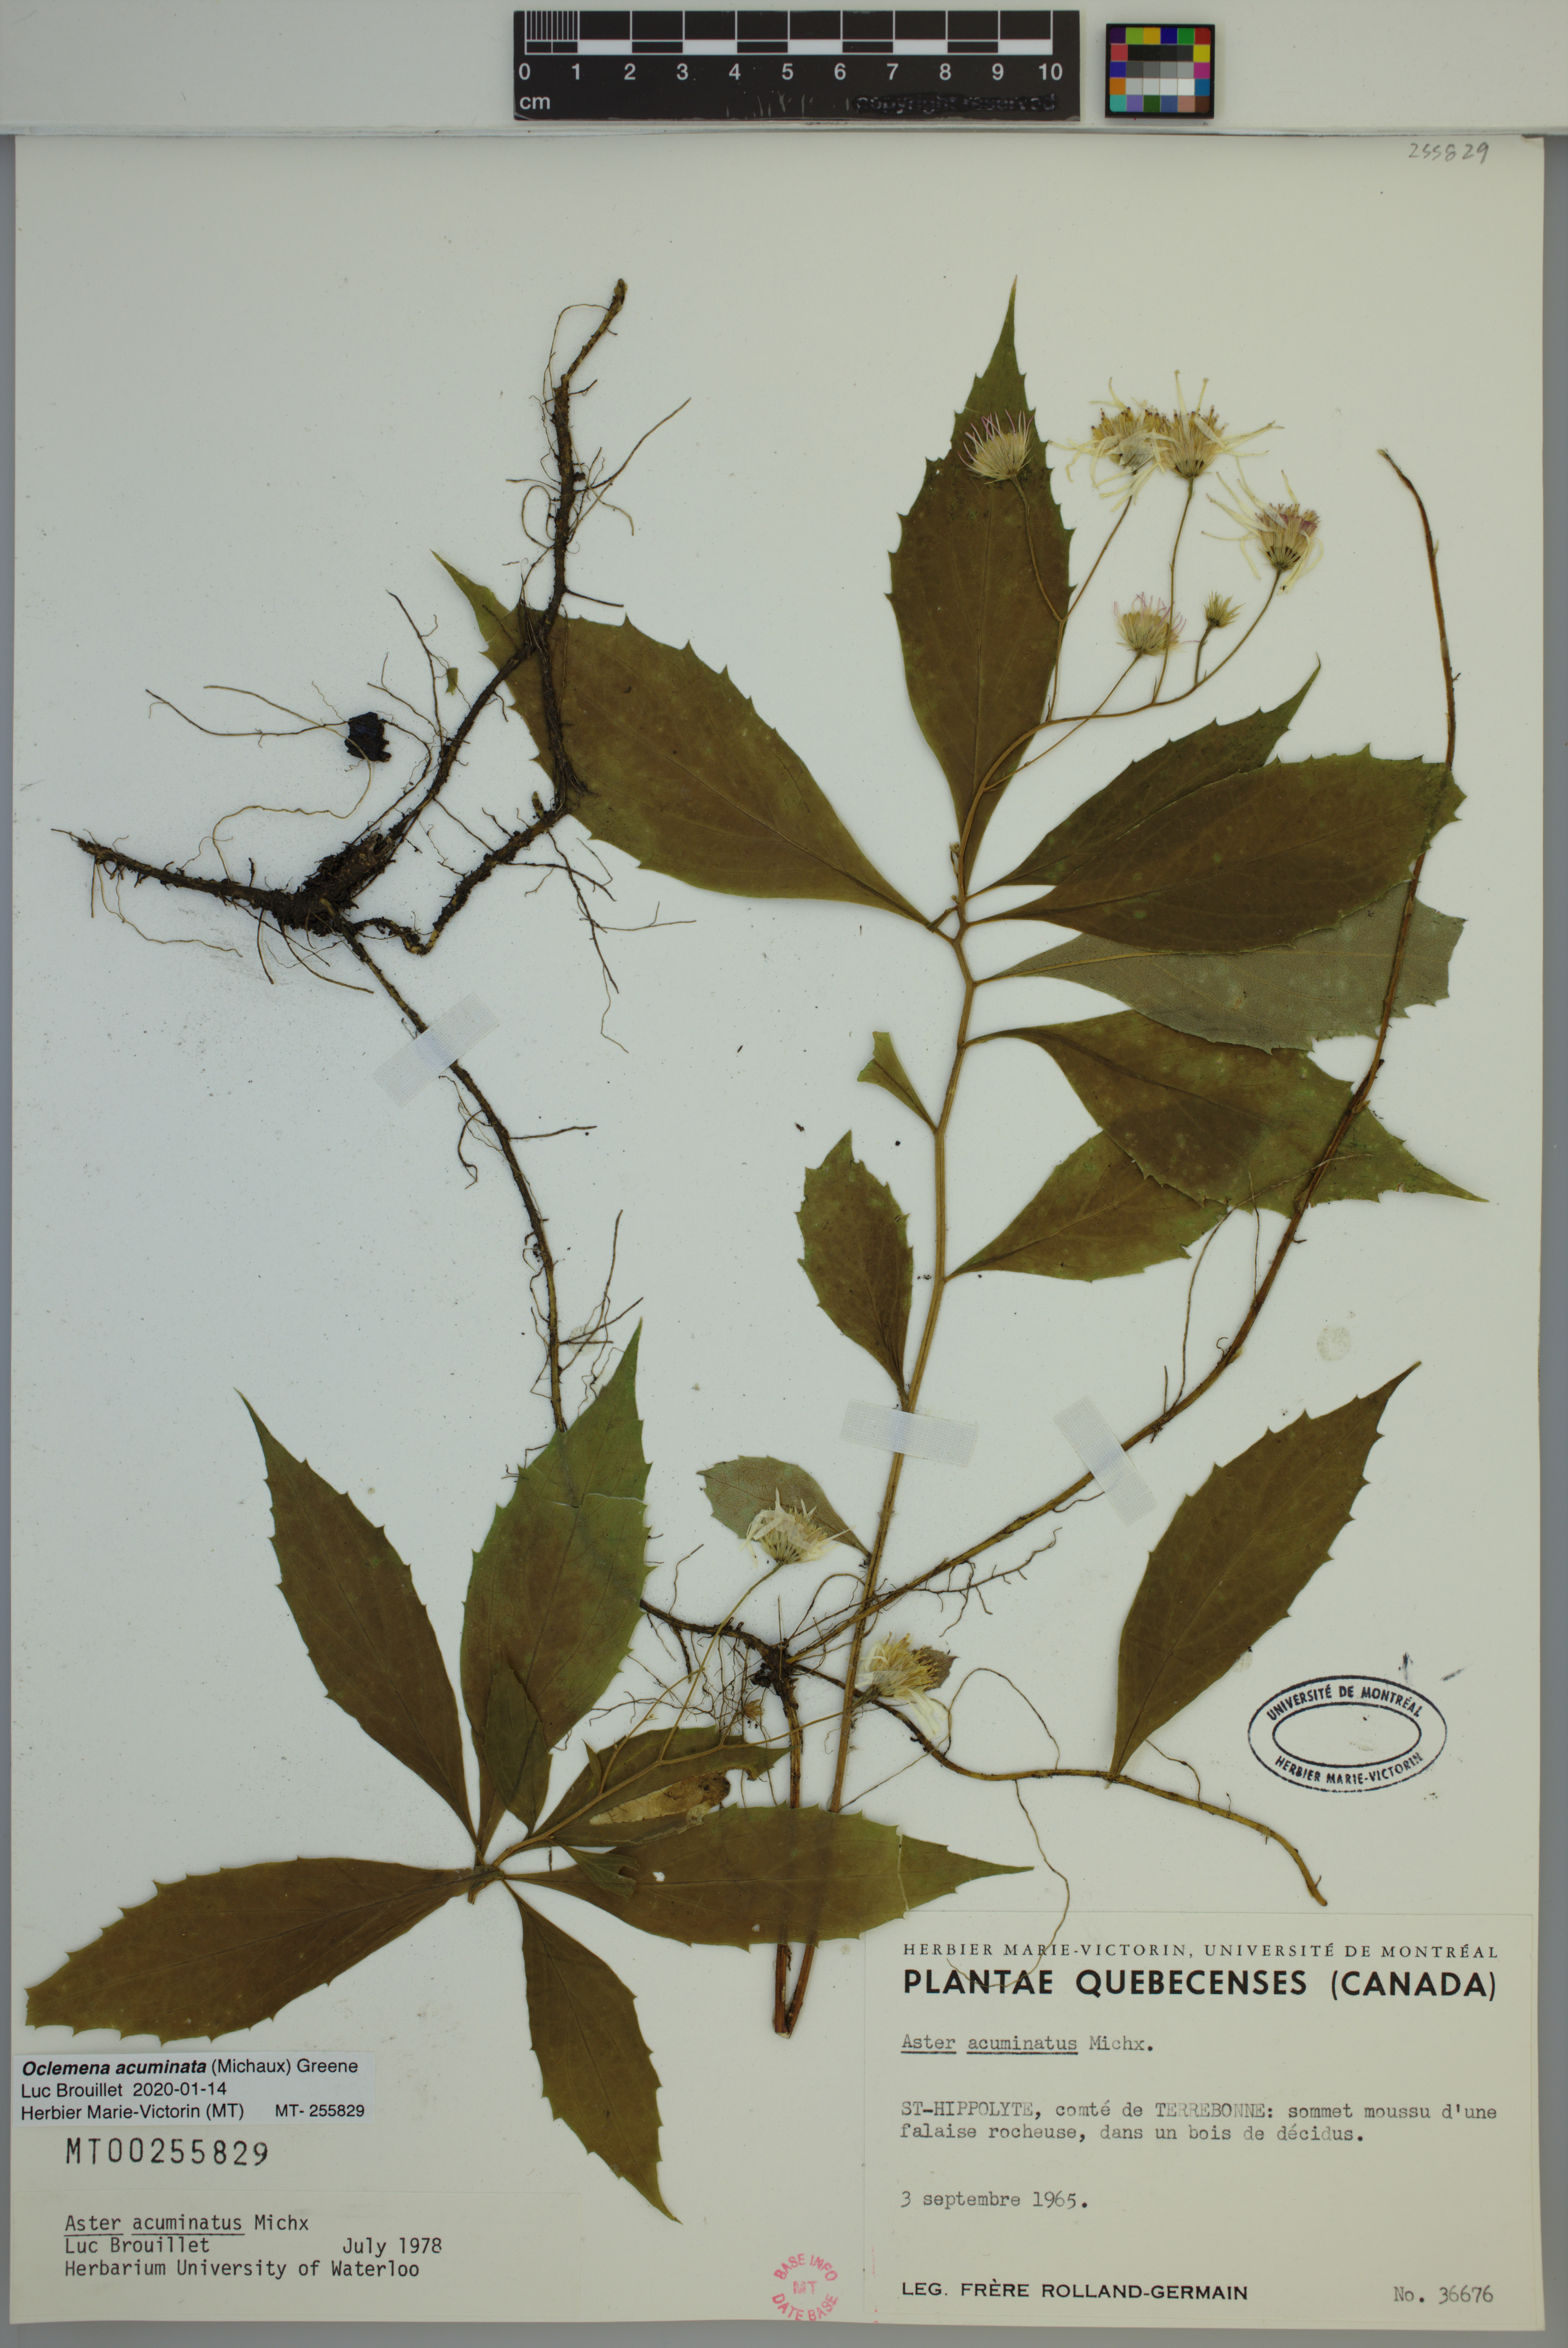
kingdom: Plantae
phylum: Tracheophyta
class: Magnoliopsida
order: Asterales
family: Asteraceae
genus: Oclemena
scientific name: Oclemena acuminata
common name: Mountain aster
